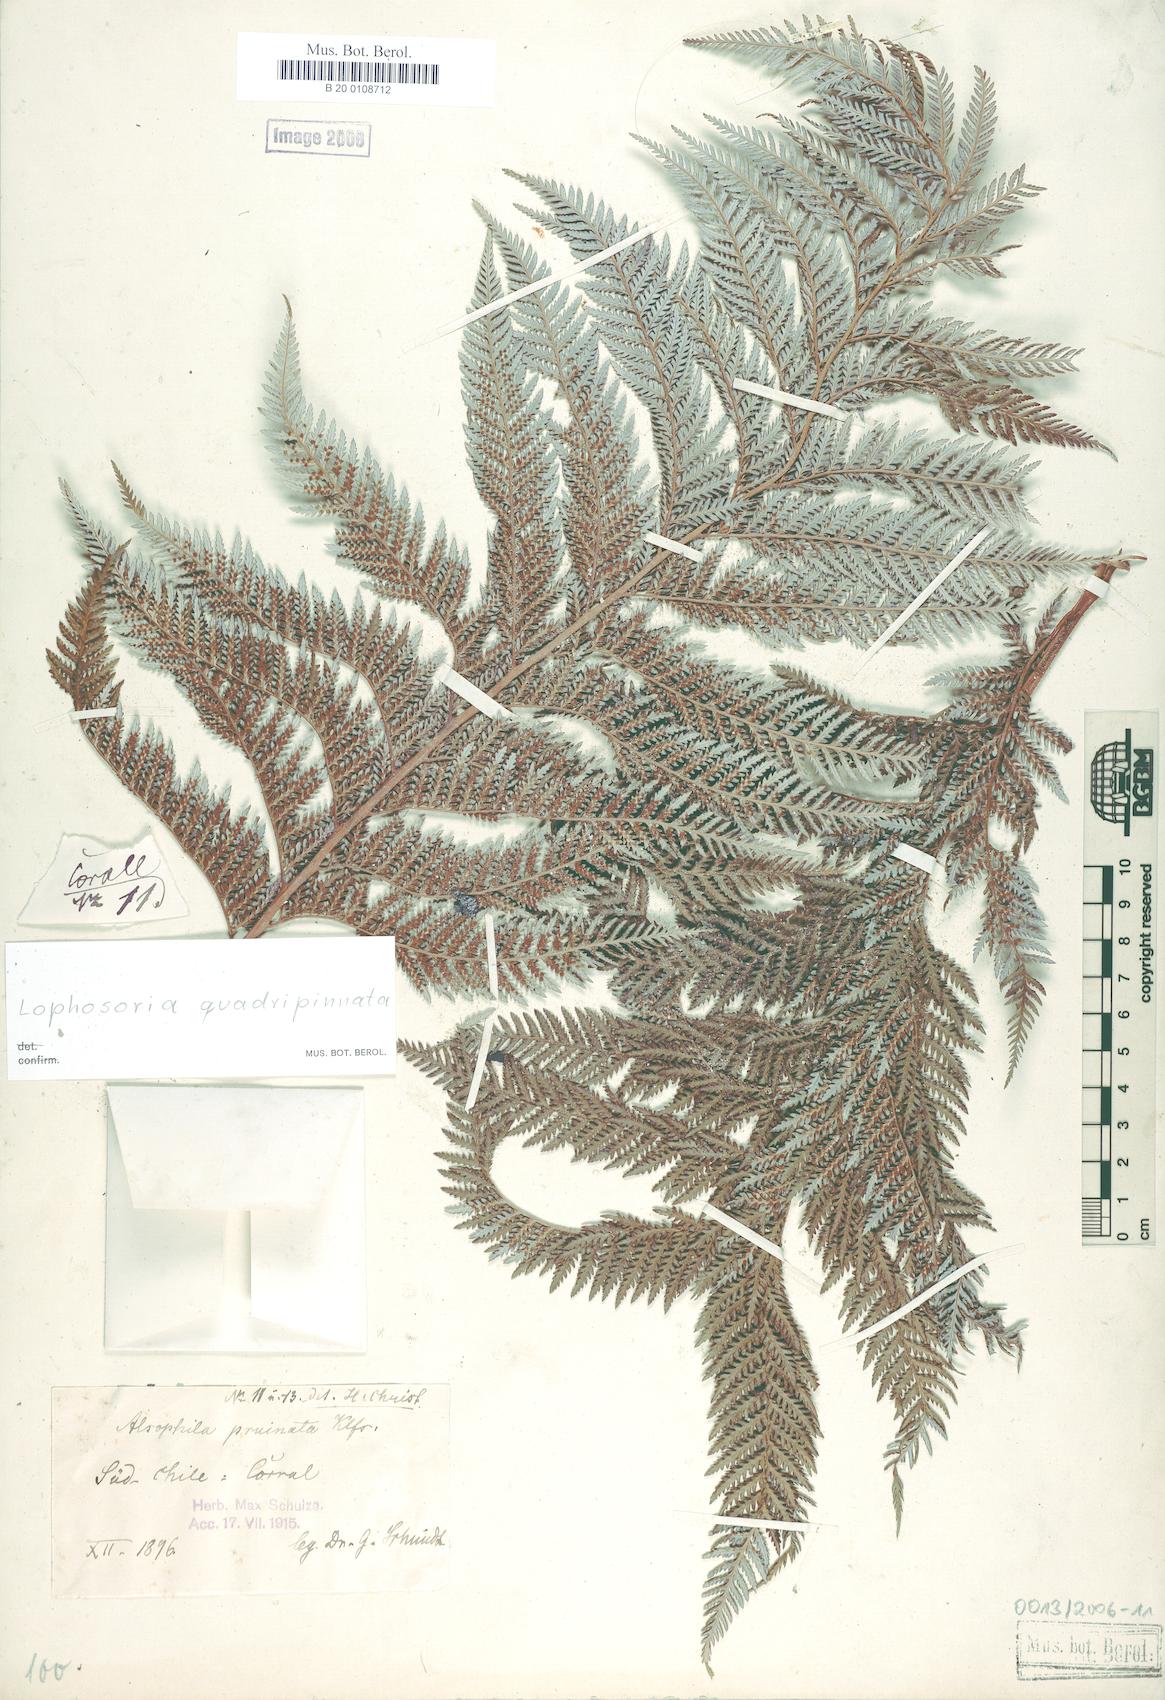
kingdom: Plantae
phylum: Tracheophyta
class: Polypodiopsida
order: Cyatheales
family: Dicksoniaceae
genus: Lophosoria
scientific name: Lophosoria quadripinnata
